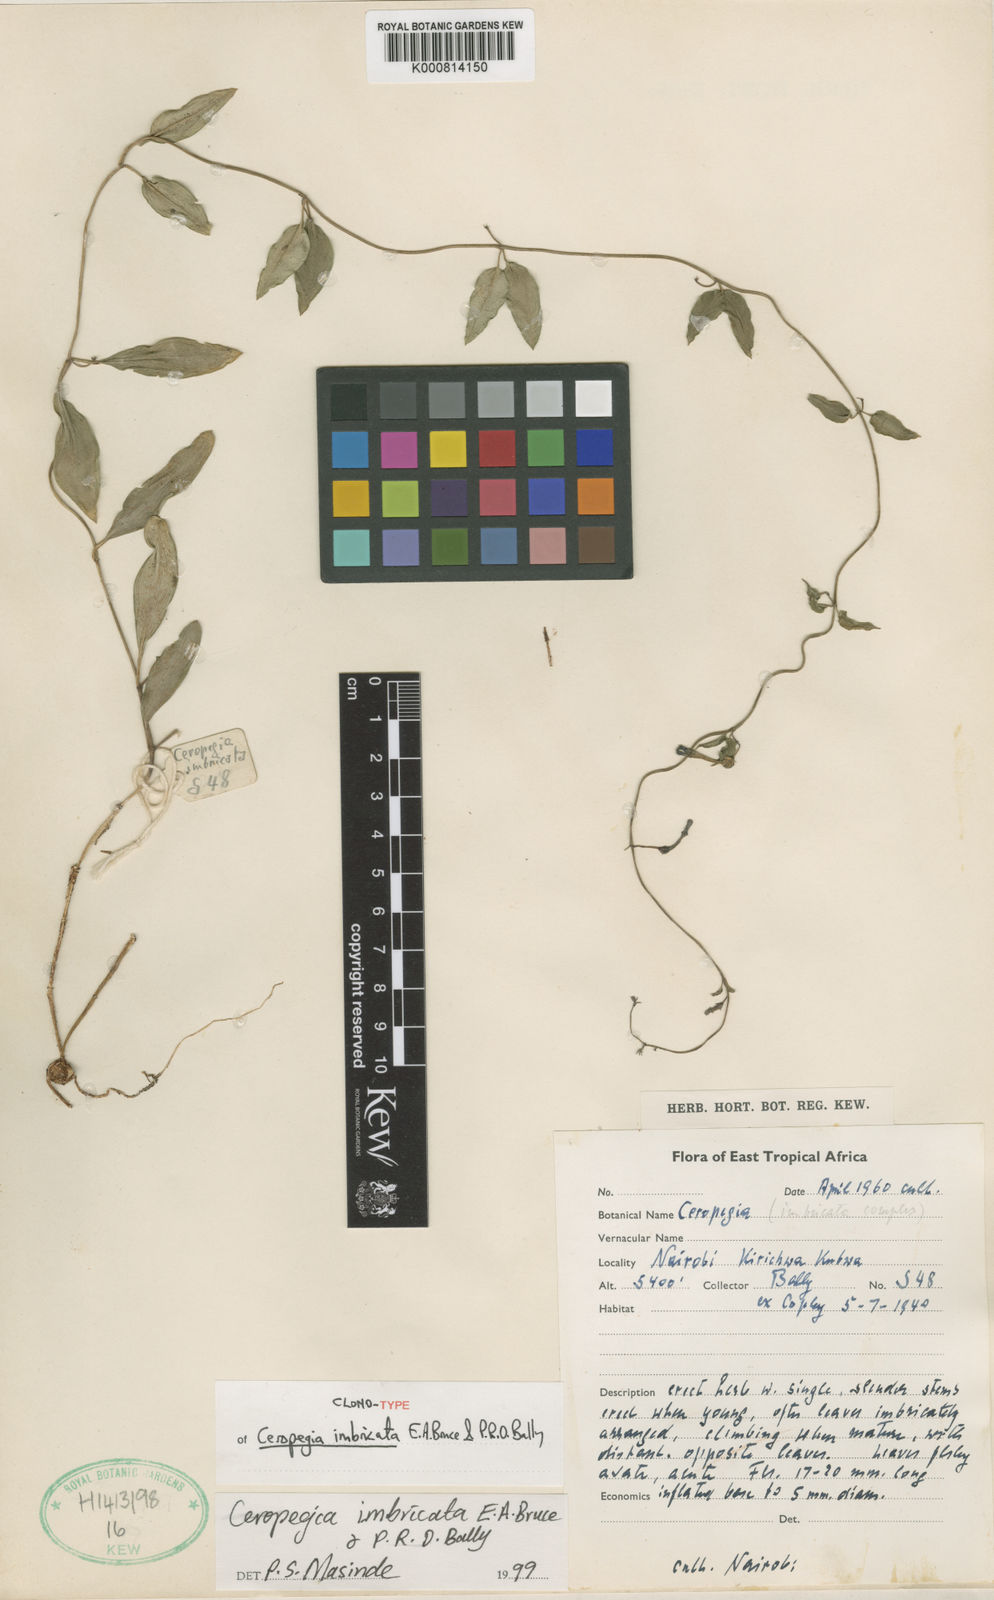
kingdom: Plantae
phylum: Tracheophyta
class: Magnoliopsida
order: Gentianales
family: Apocynaceae
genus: Ceropegia
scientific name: Ceropegia collaricorona
